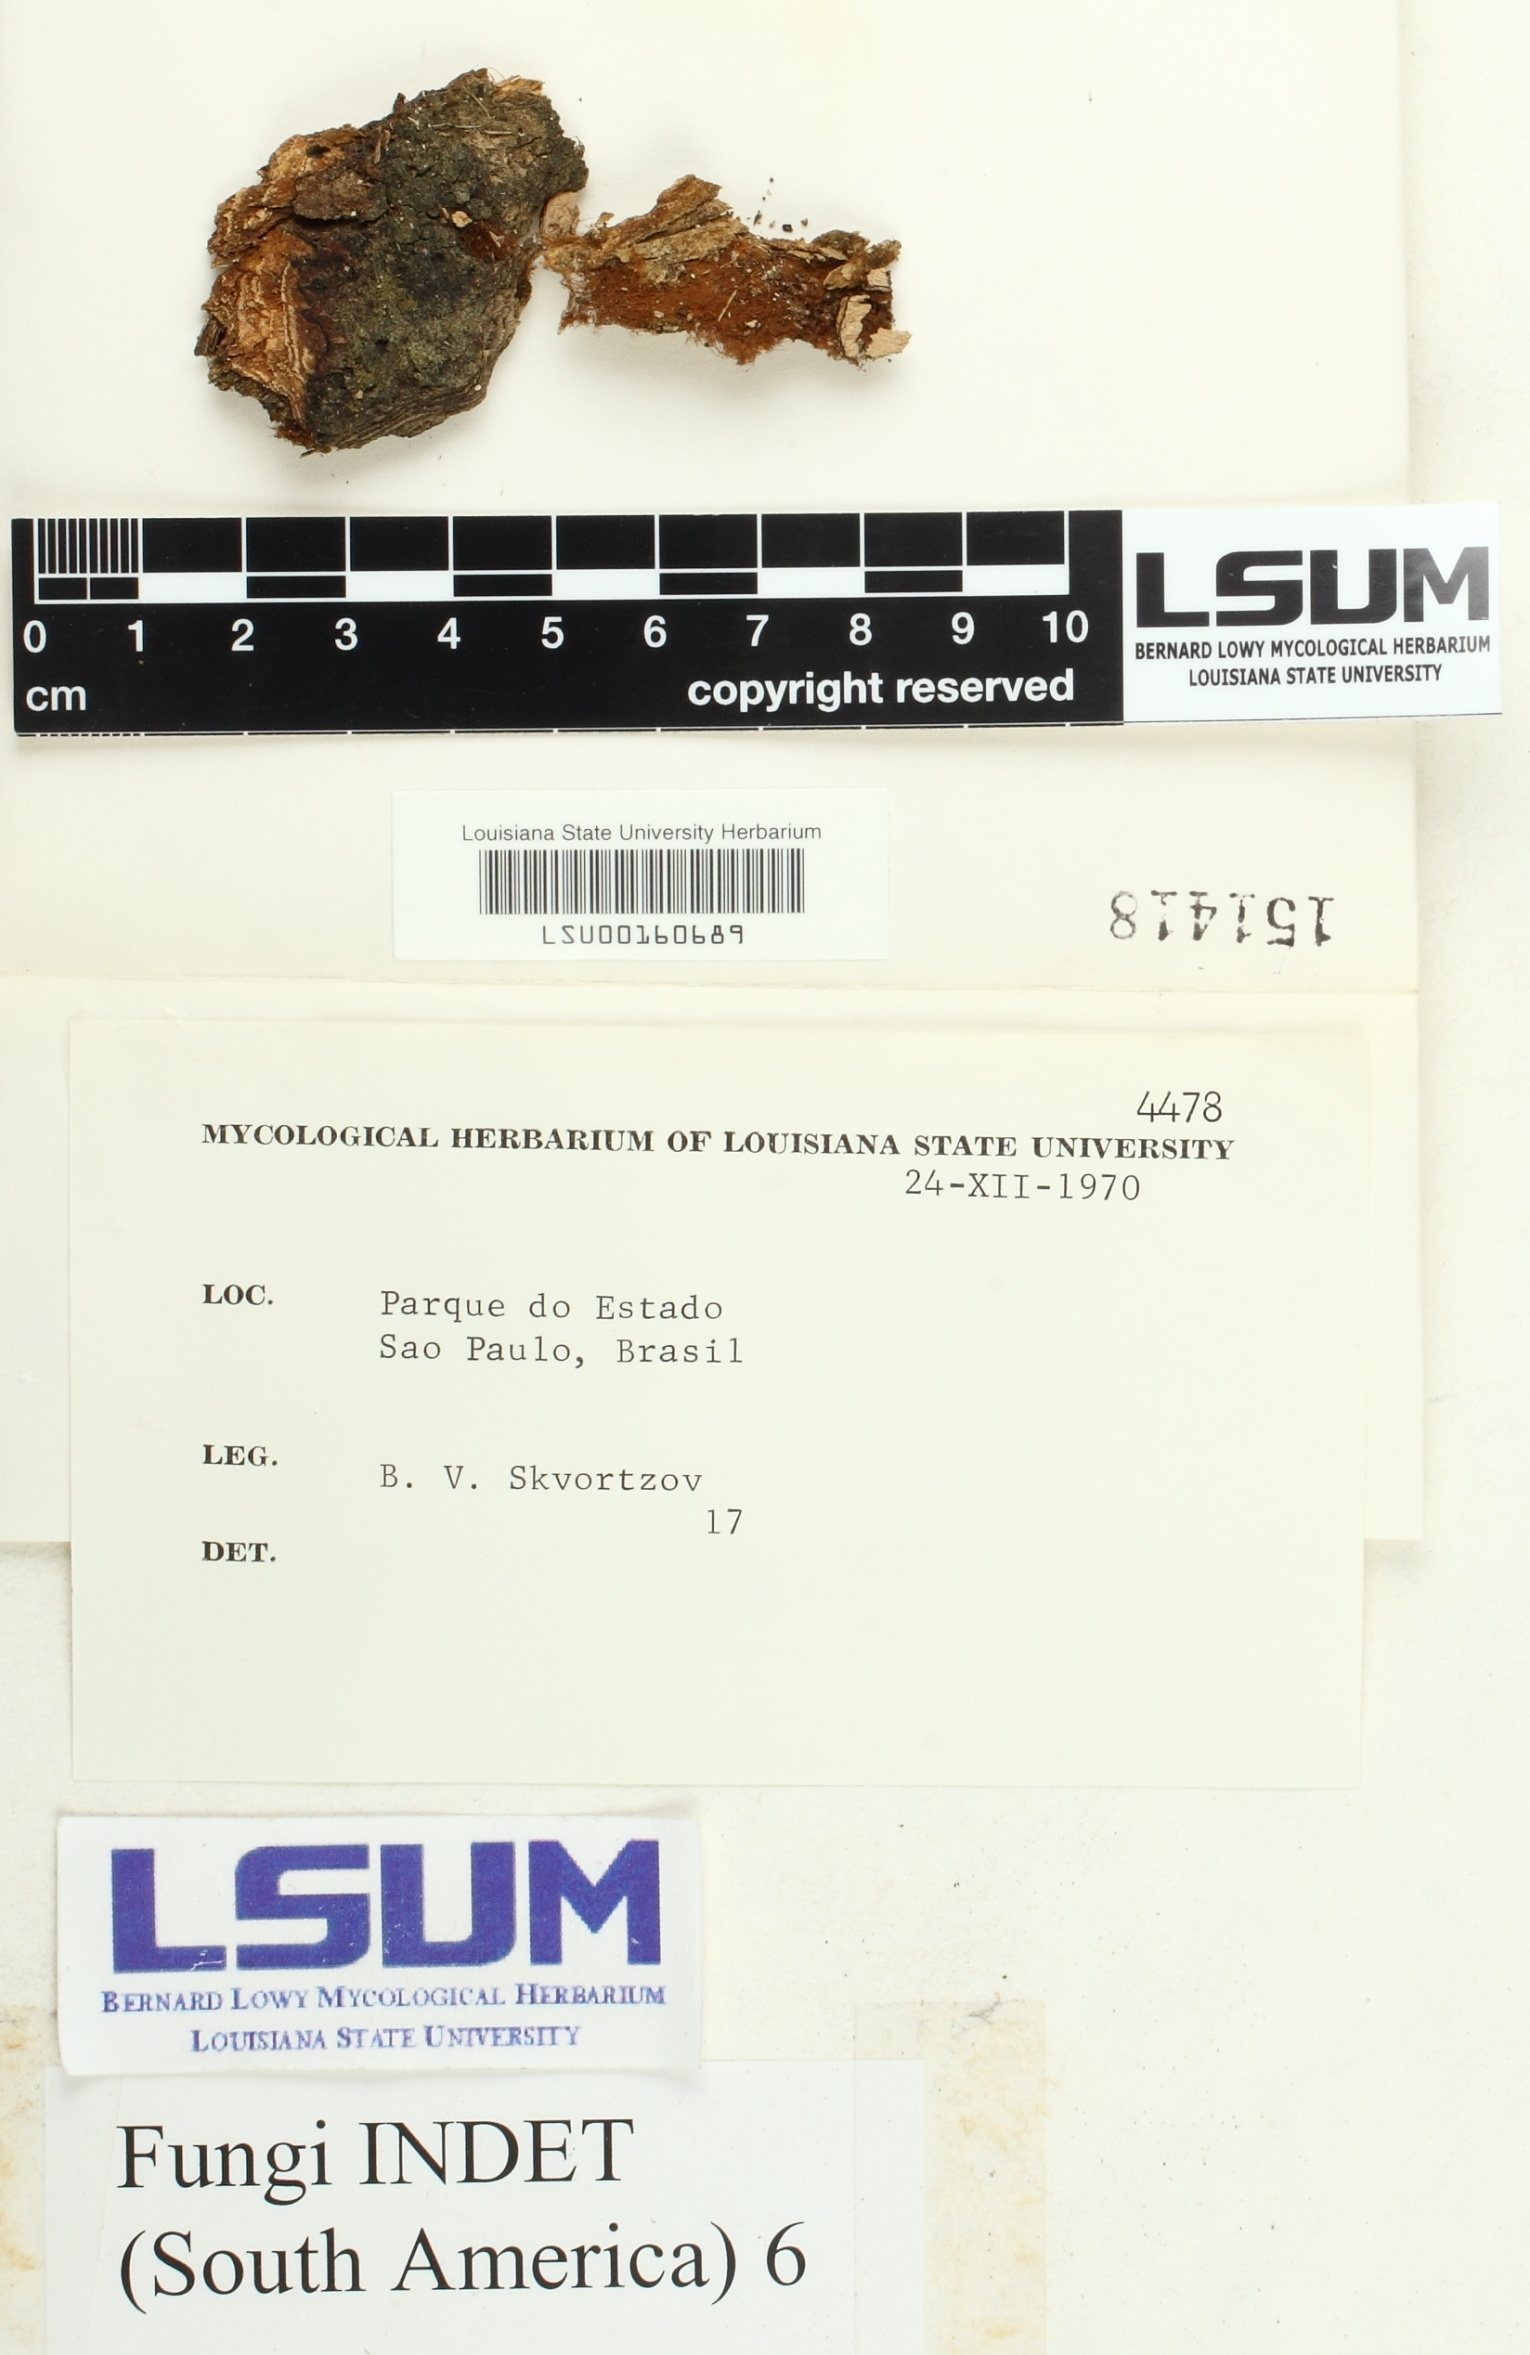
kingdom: Fungi
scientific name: Fungi
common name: Fungi
